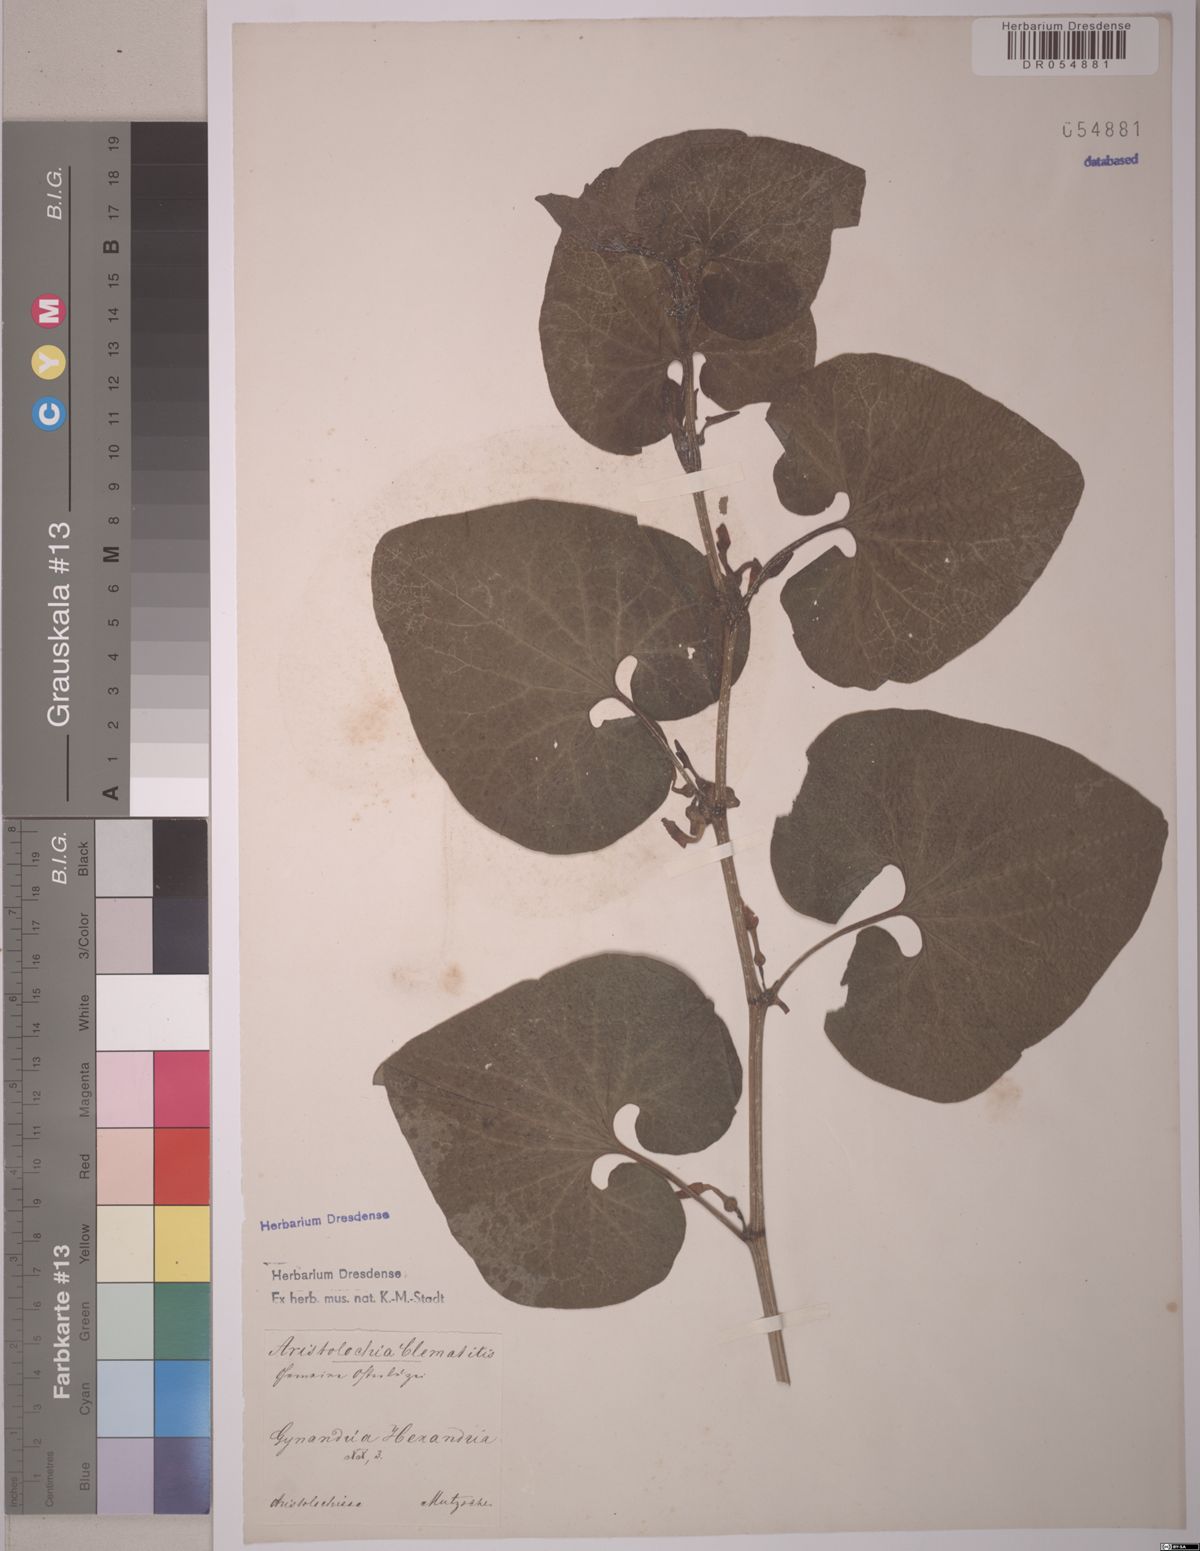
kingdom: Plantae
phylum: Tracheophyta
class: Magnoliopsida
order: Piperales
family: Aristolochiaceae
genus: Aristolochia
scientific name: Aristolochia clematitis
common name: Birthwort
